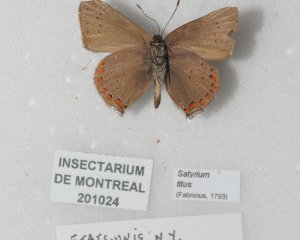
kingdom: Animalia
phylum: Arthropoda
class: Insecta
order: Lepidoptera
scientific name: Lepidoptera
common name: Butterflies
